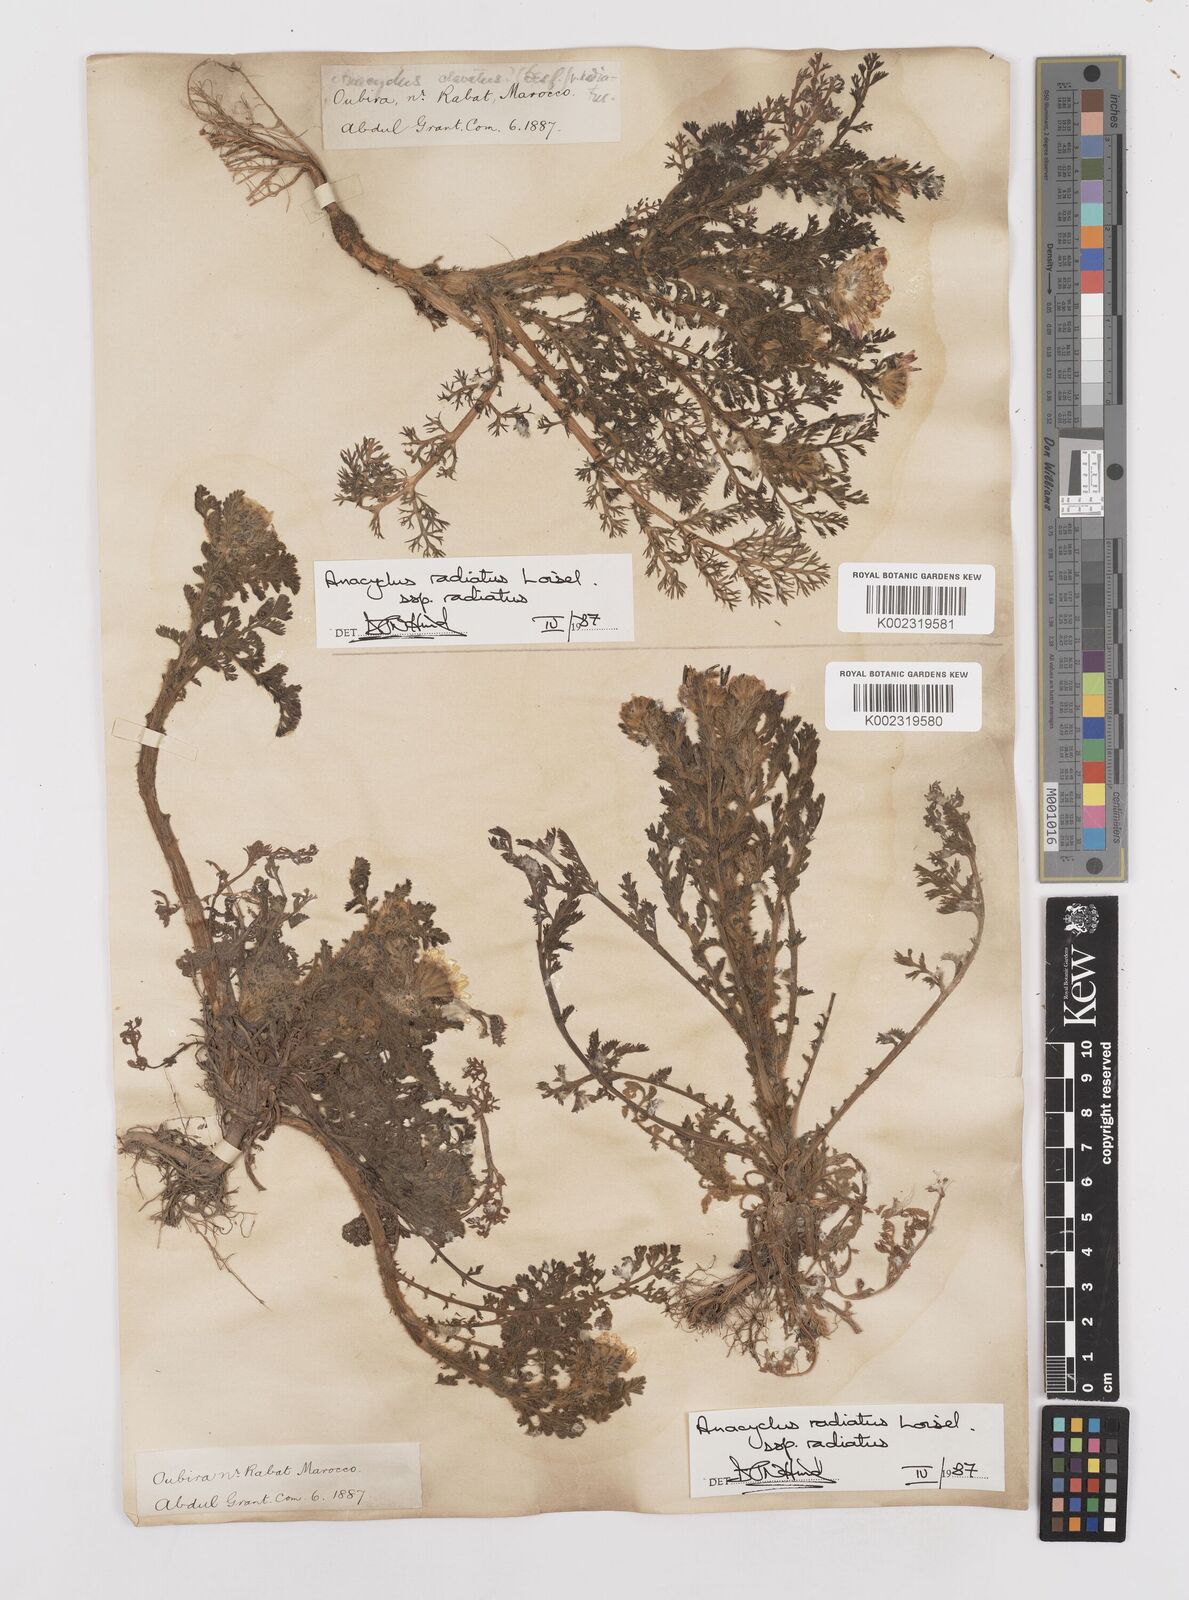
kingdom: Plantae
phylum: Tracheophyta
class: Magnoliopsida
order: Asterales
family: Asteraceae
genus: Anacyclus
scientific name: Anacyclus radiatus
